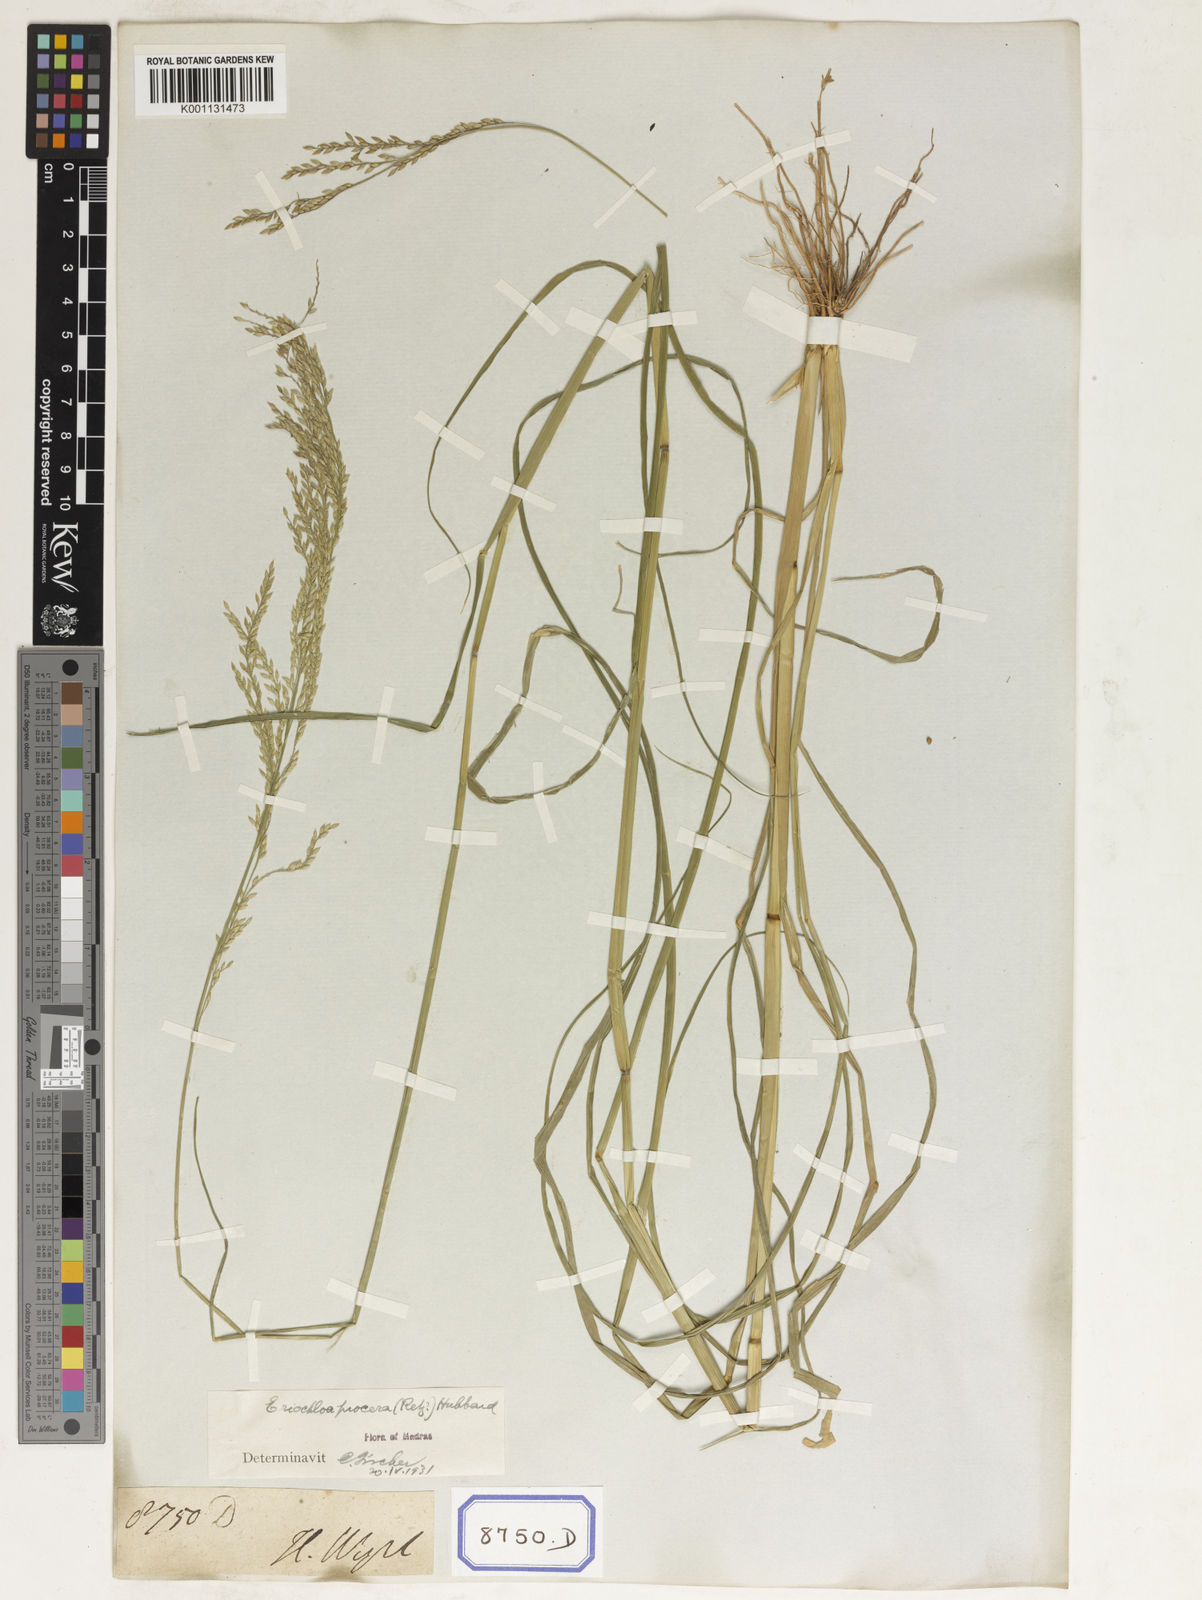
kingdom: Plantae
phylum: Tracheophyta
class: Liliopsida
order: Poales
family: Poaceae
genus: Eriochloa
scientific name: Eriochloa procera
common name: Spring grass
